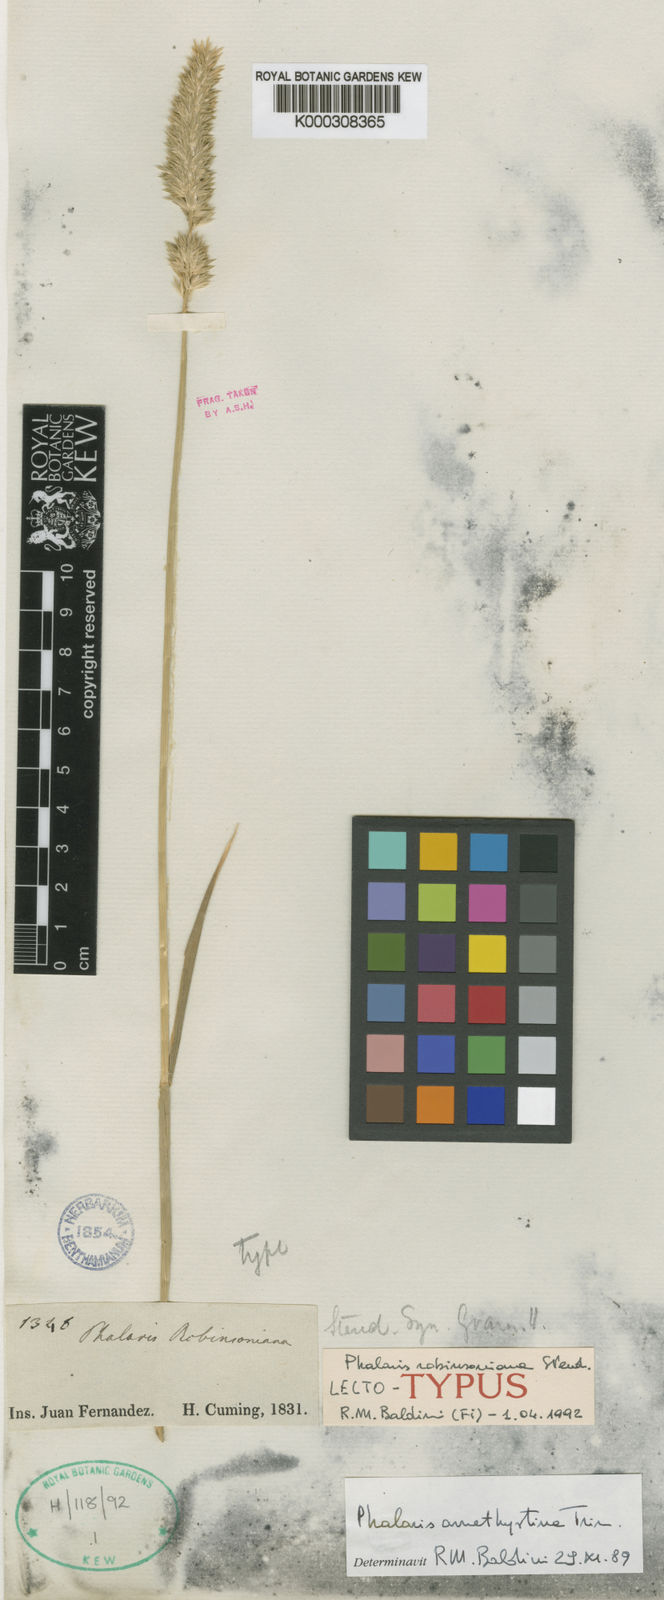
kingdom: Plantae
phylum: Tracheophyta
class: Liliopsida
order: Poales
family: Poaceae
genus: Phalaris
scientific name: Phalaris amethystina
